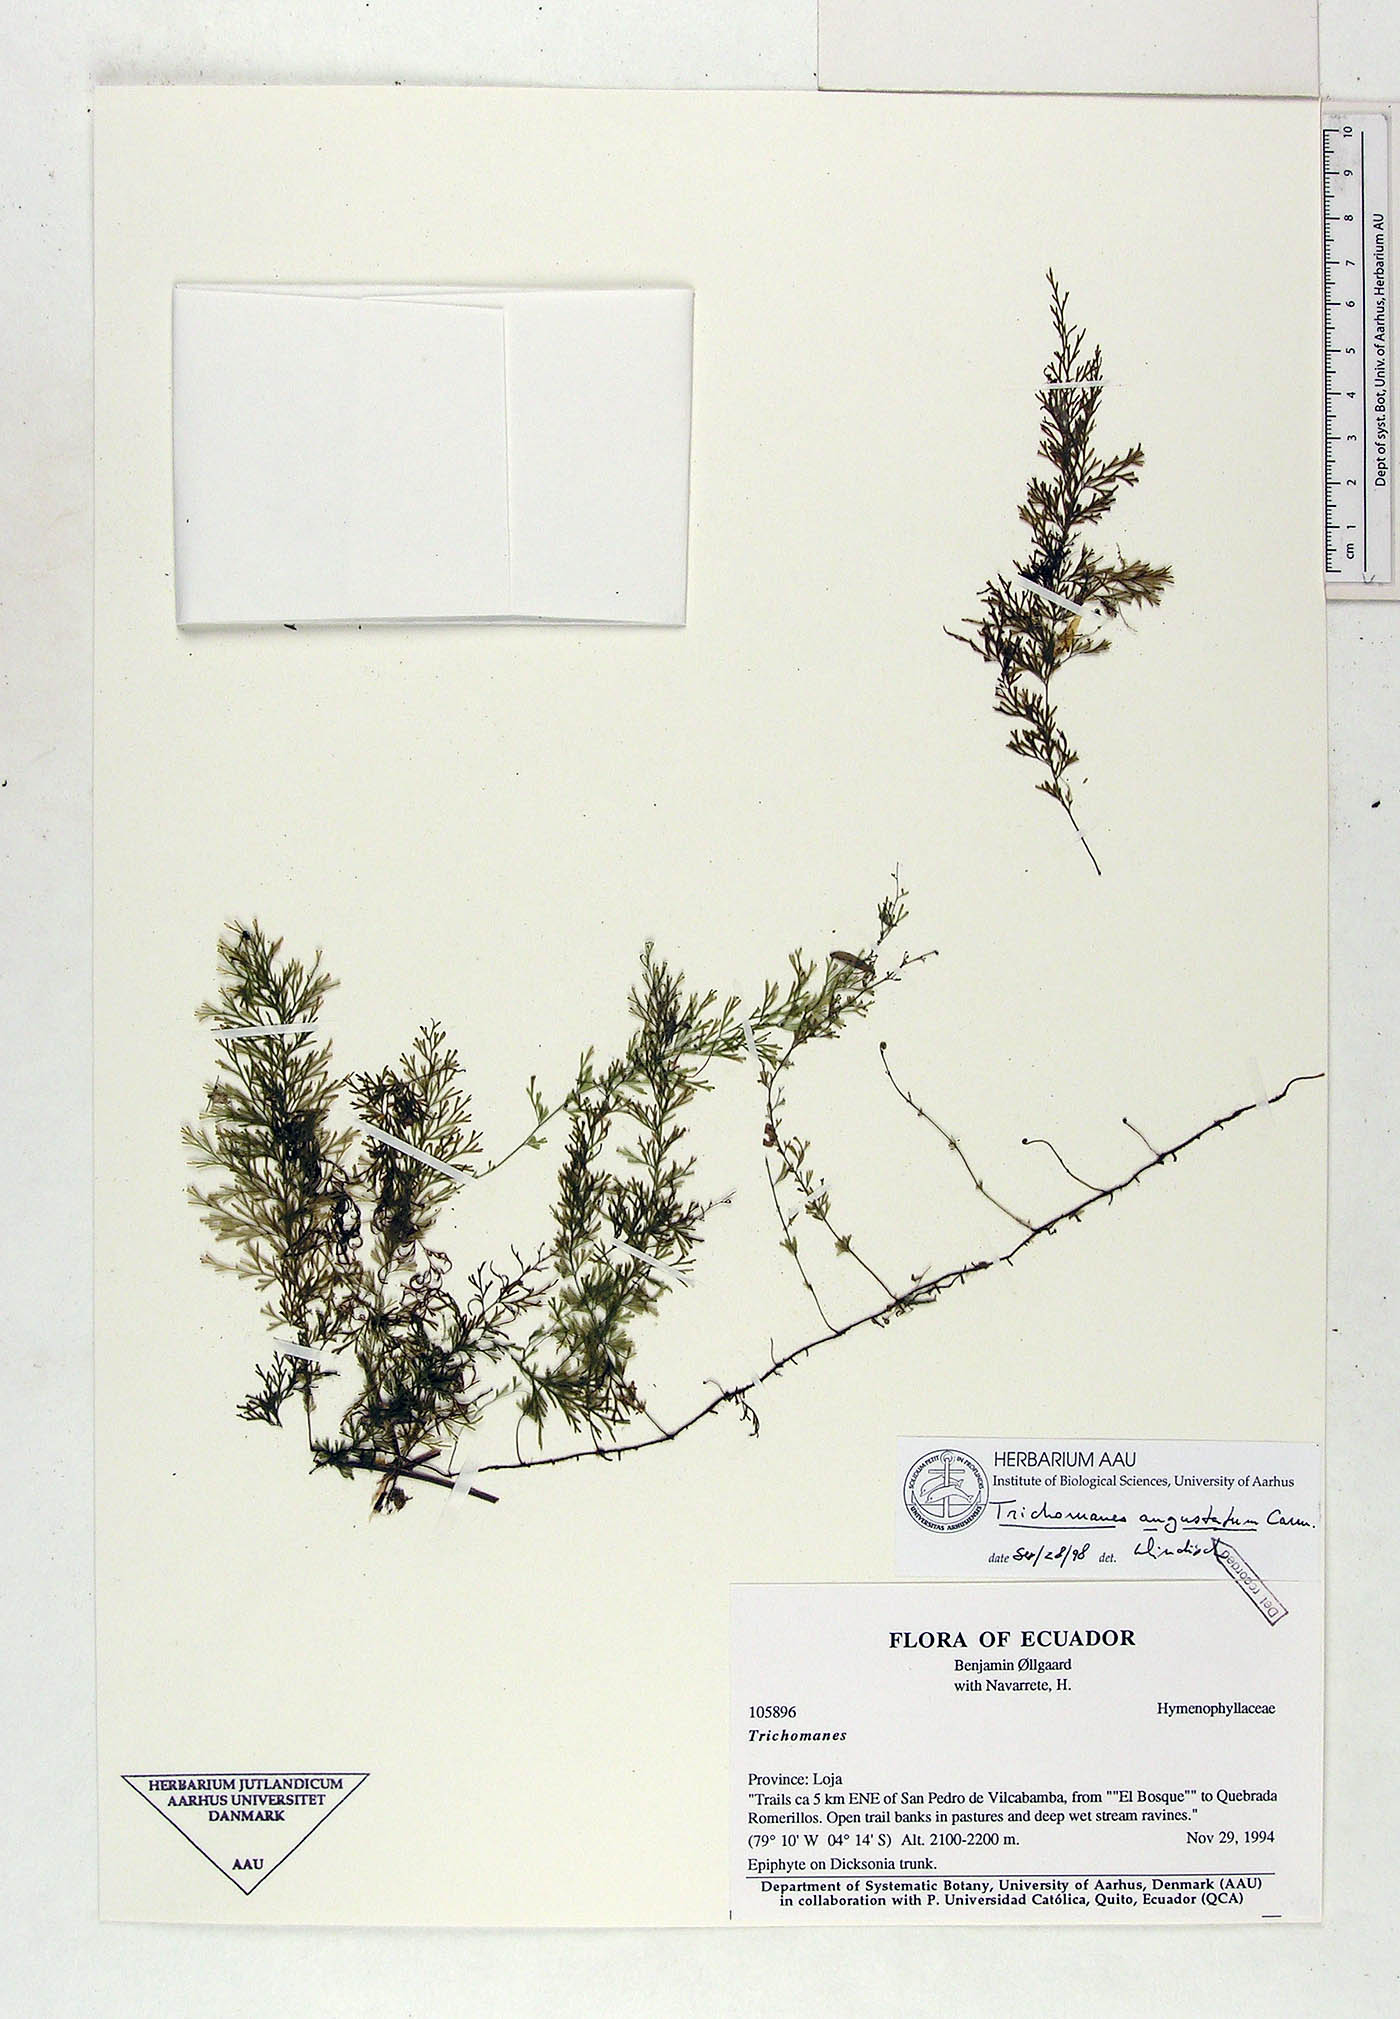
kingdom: Plantae
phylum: Tracheophyta
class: Polypodiopsida
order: Hymenophyllales
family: Hymenophyllaceae
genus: Polyphlebium
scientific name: Polyphlebium angustatum
